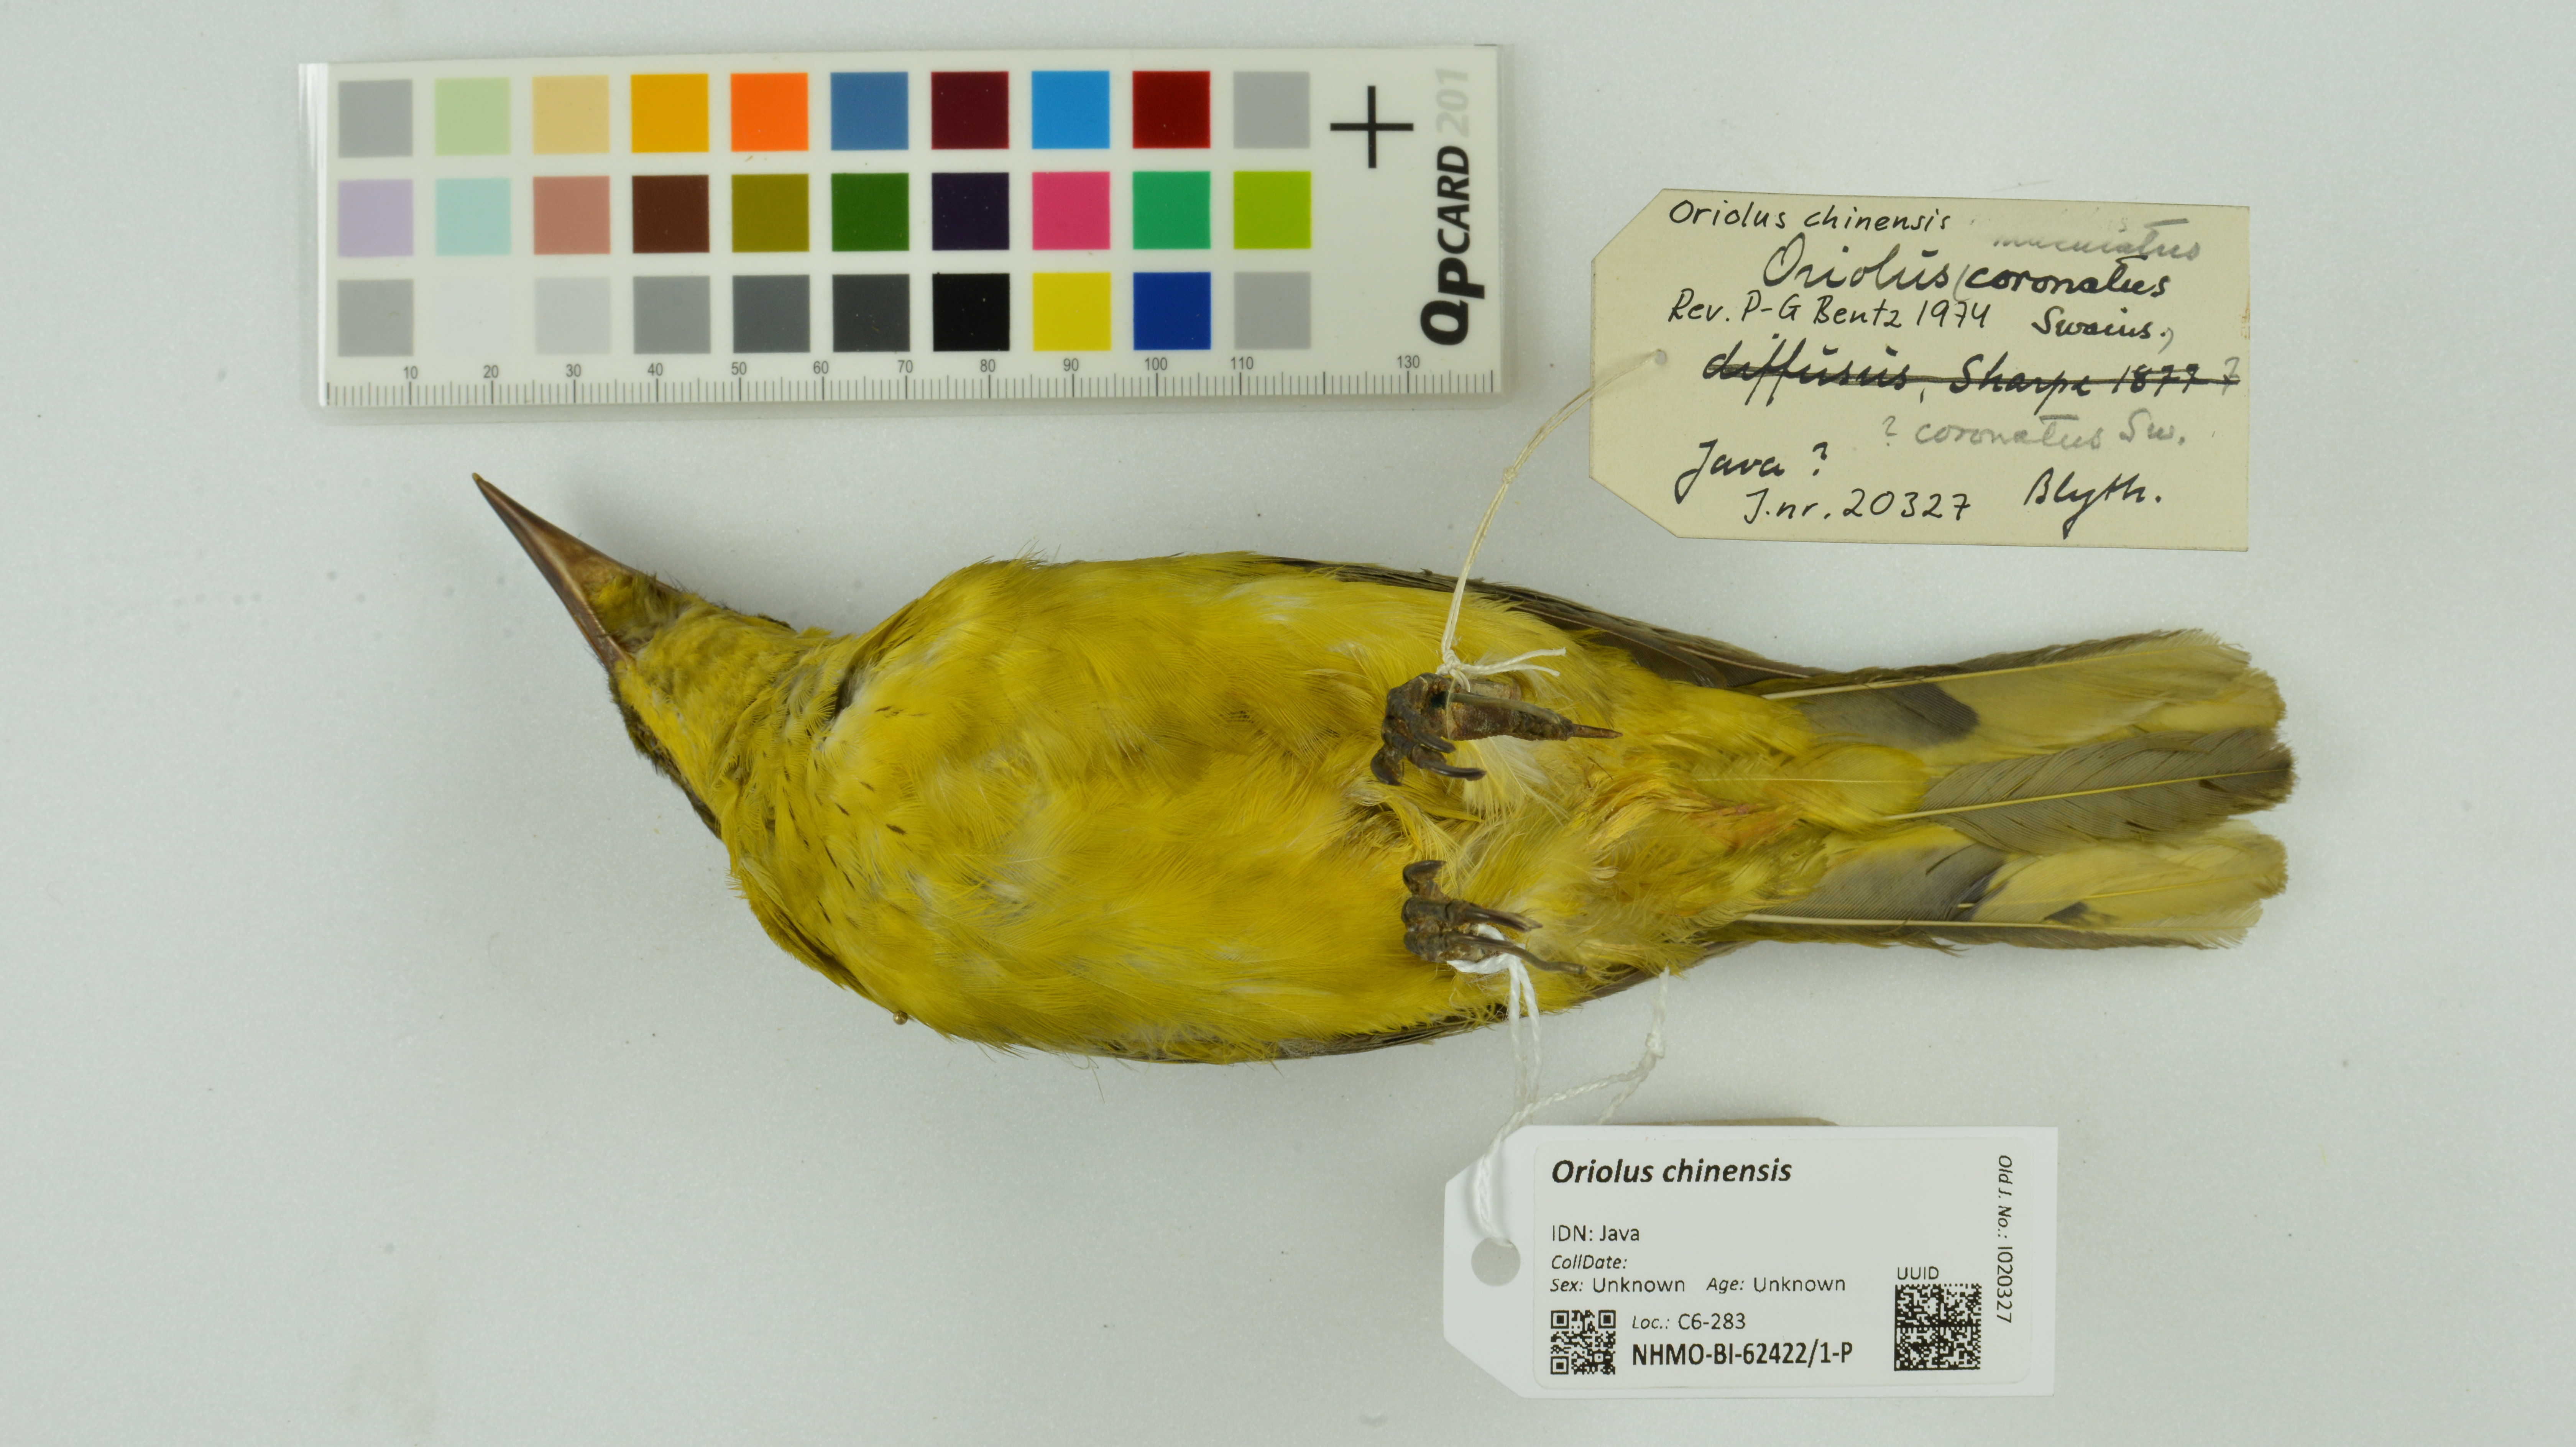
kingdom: Animalia
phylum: Chordata
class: Aves
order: Passeriformes
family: Oriolidae
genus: Oriolus
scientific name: Oriolus chinensis
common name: Black-naped oriole
